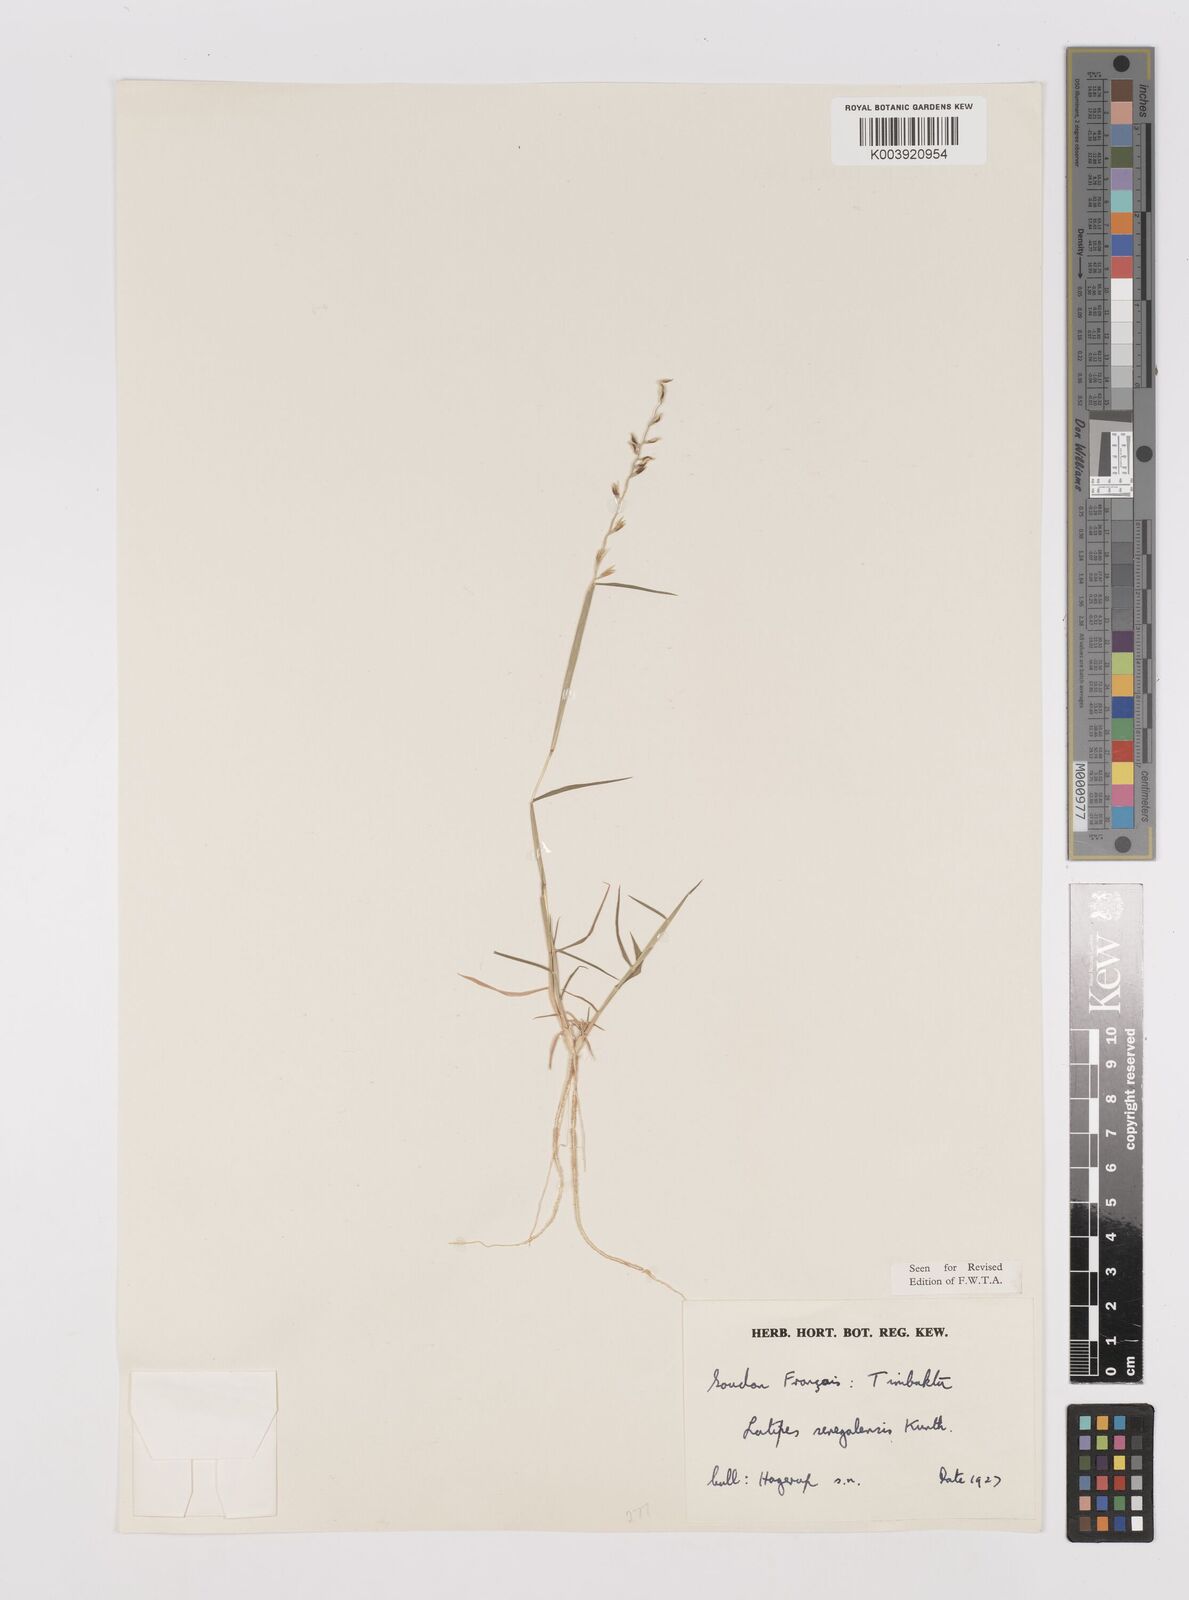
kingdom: Plantae
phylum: Tracheophyta
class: Liliopsida
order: Poales
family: Poaceae
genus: Leptothrium
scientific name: Leptothrium senegalense
